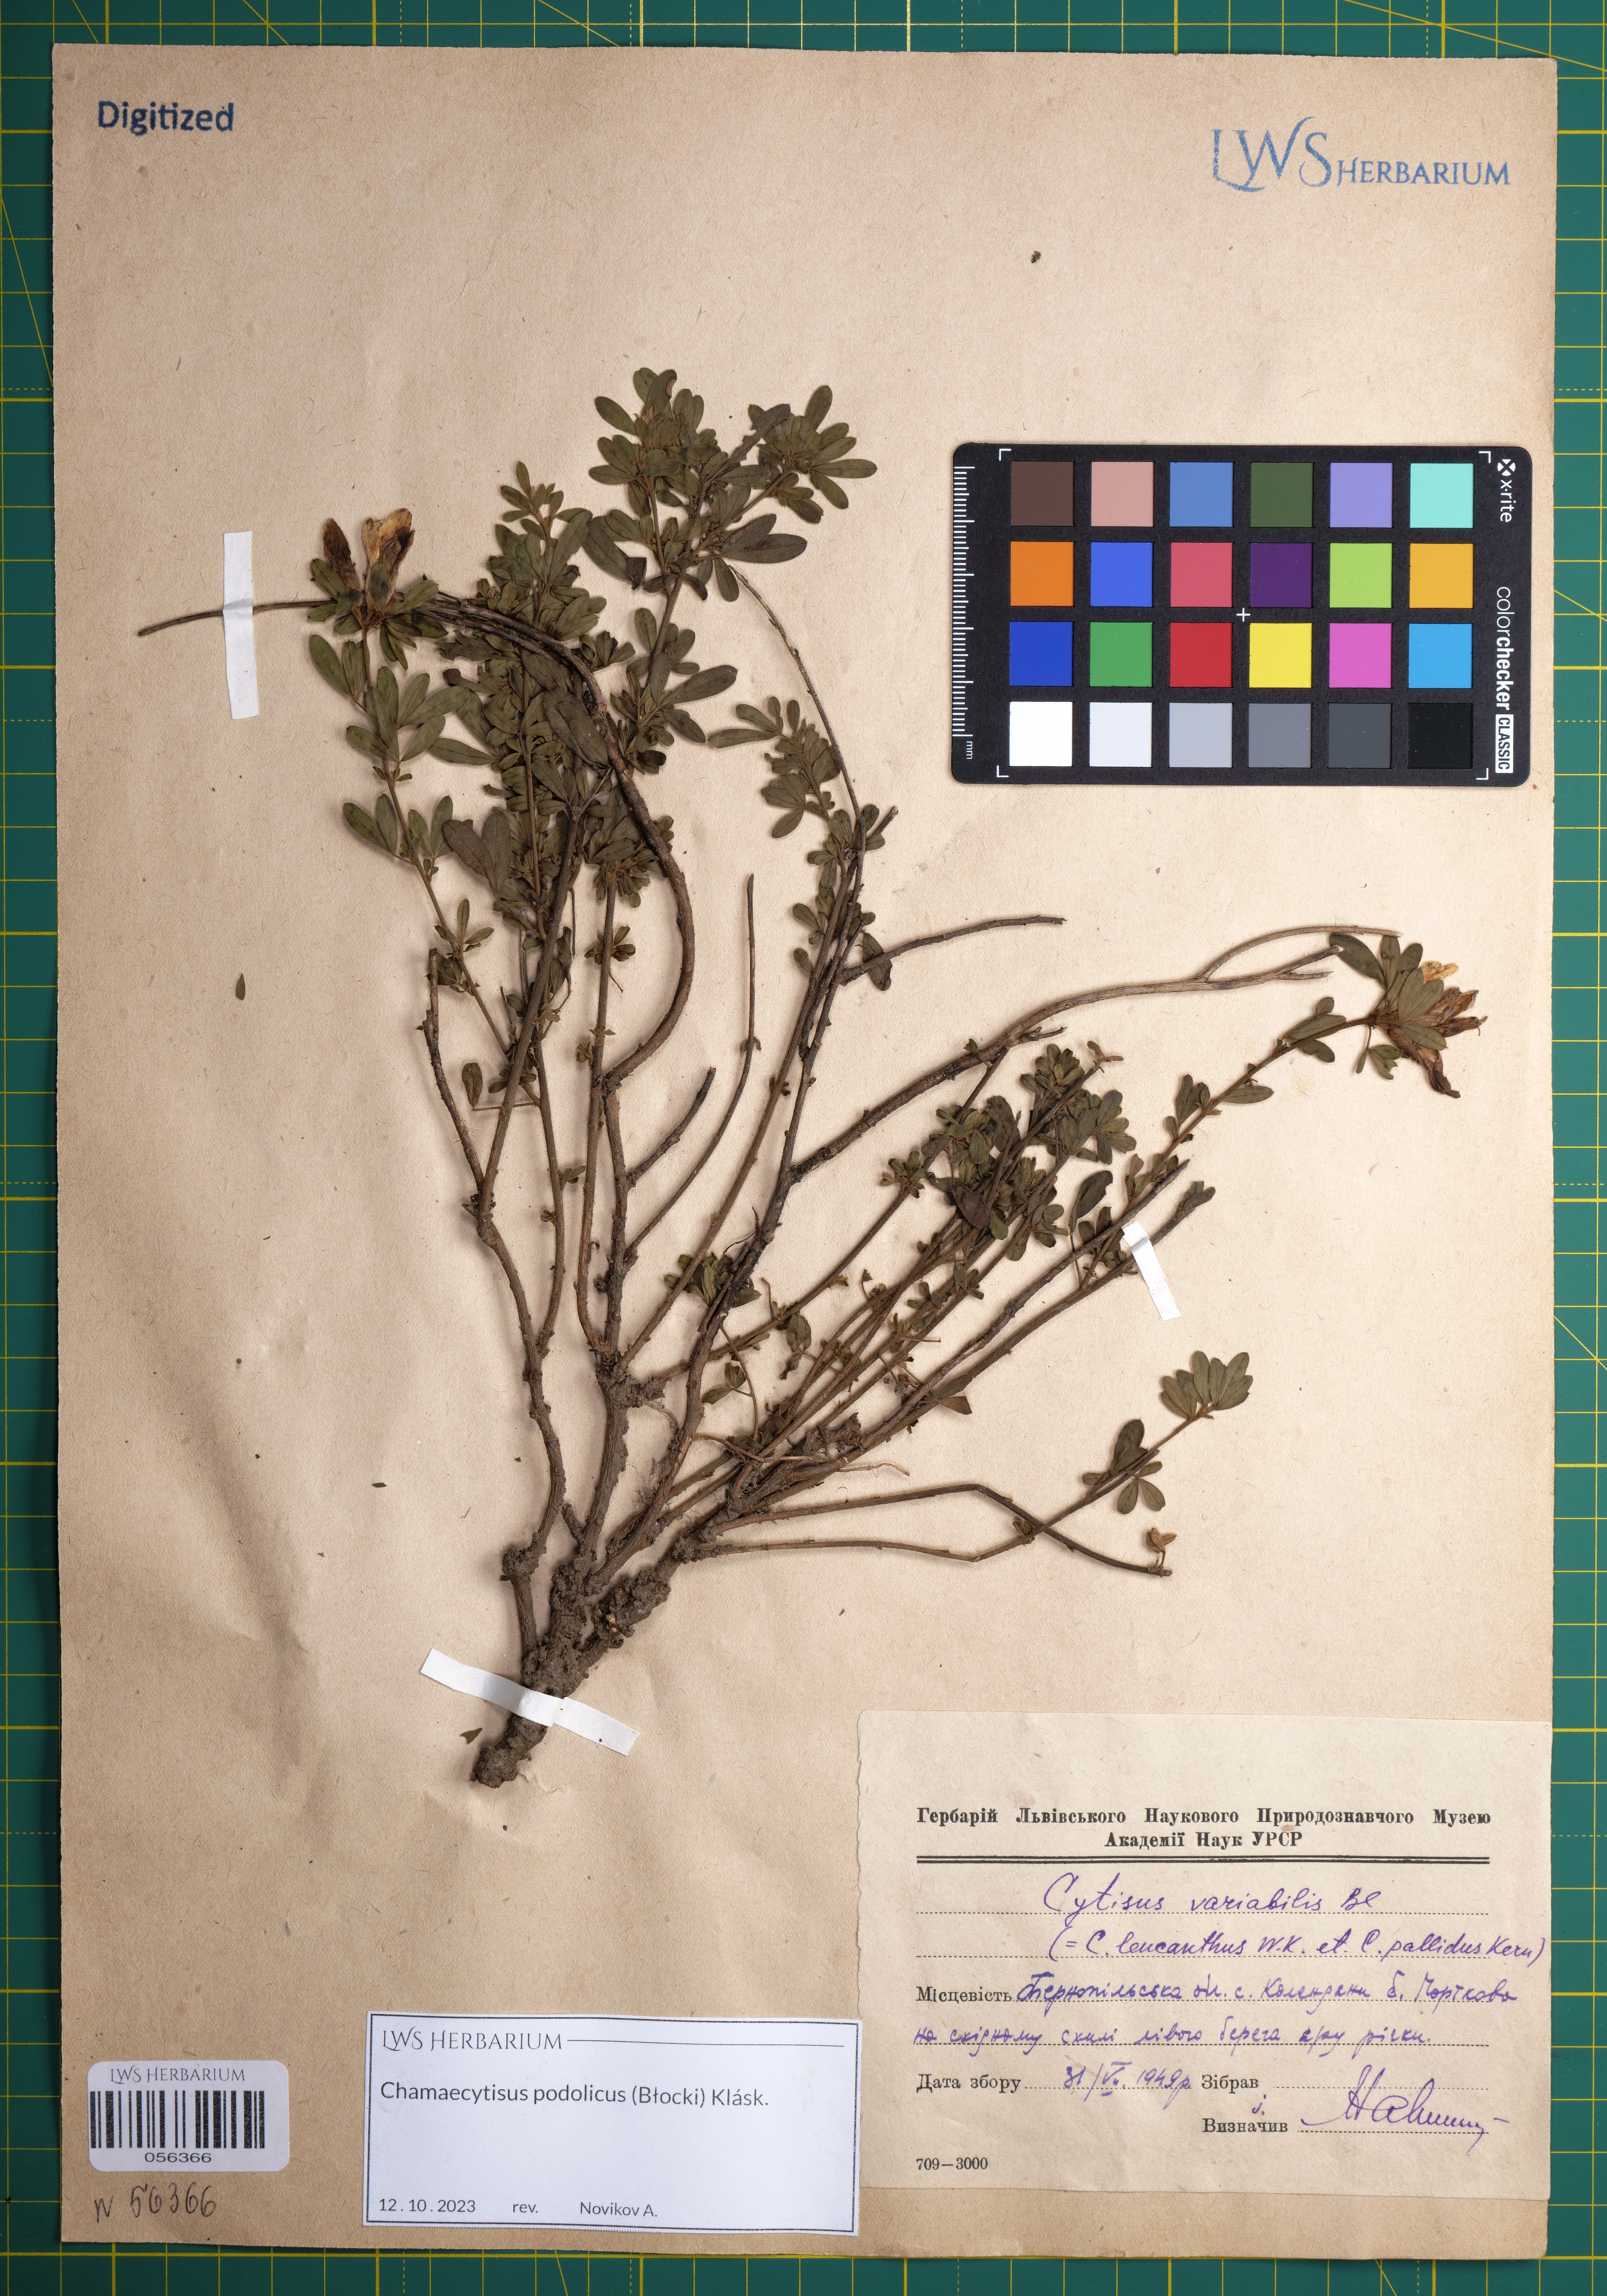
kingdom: Plantae
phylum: Tracheophyta
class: Magnoliopsida
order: Fabales
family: Fabaceae
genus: Chamaecytisus
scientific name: Chamaecytisus podolicus
